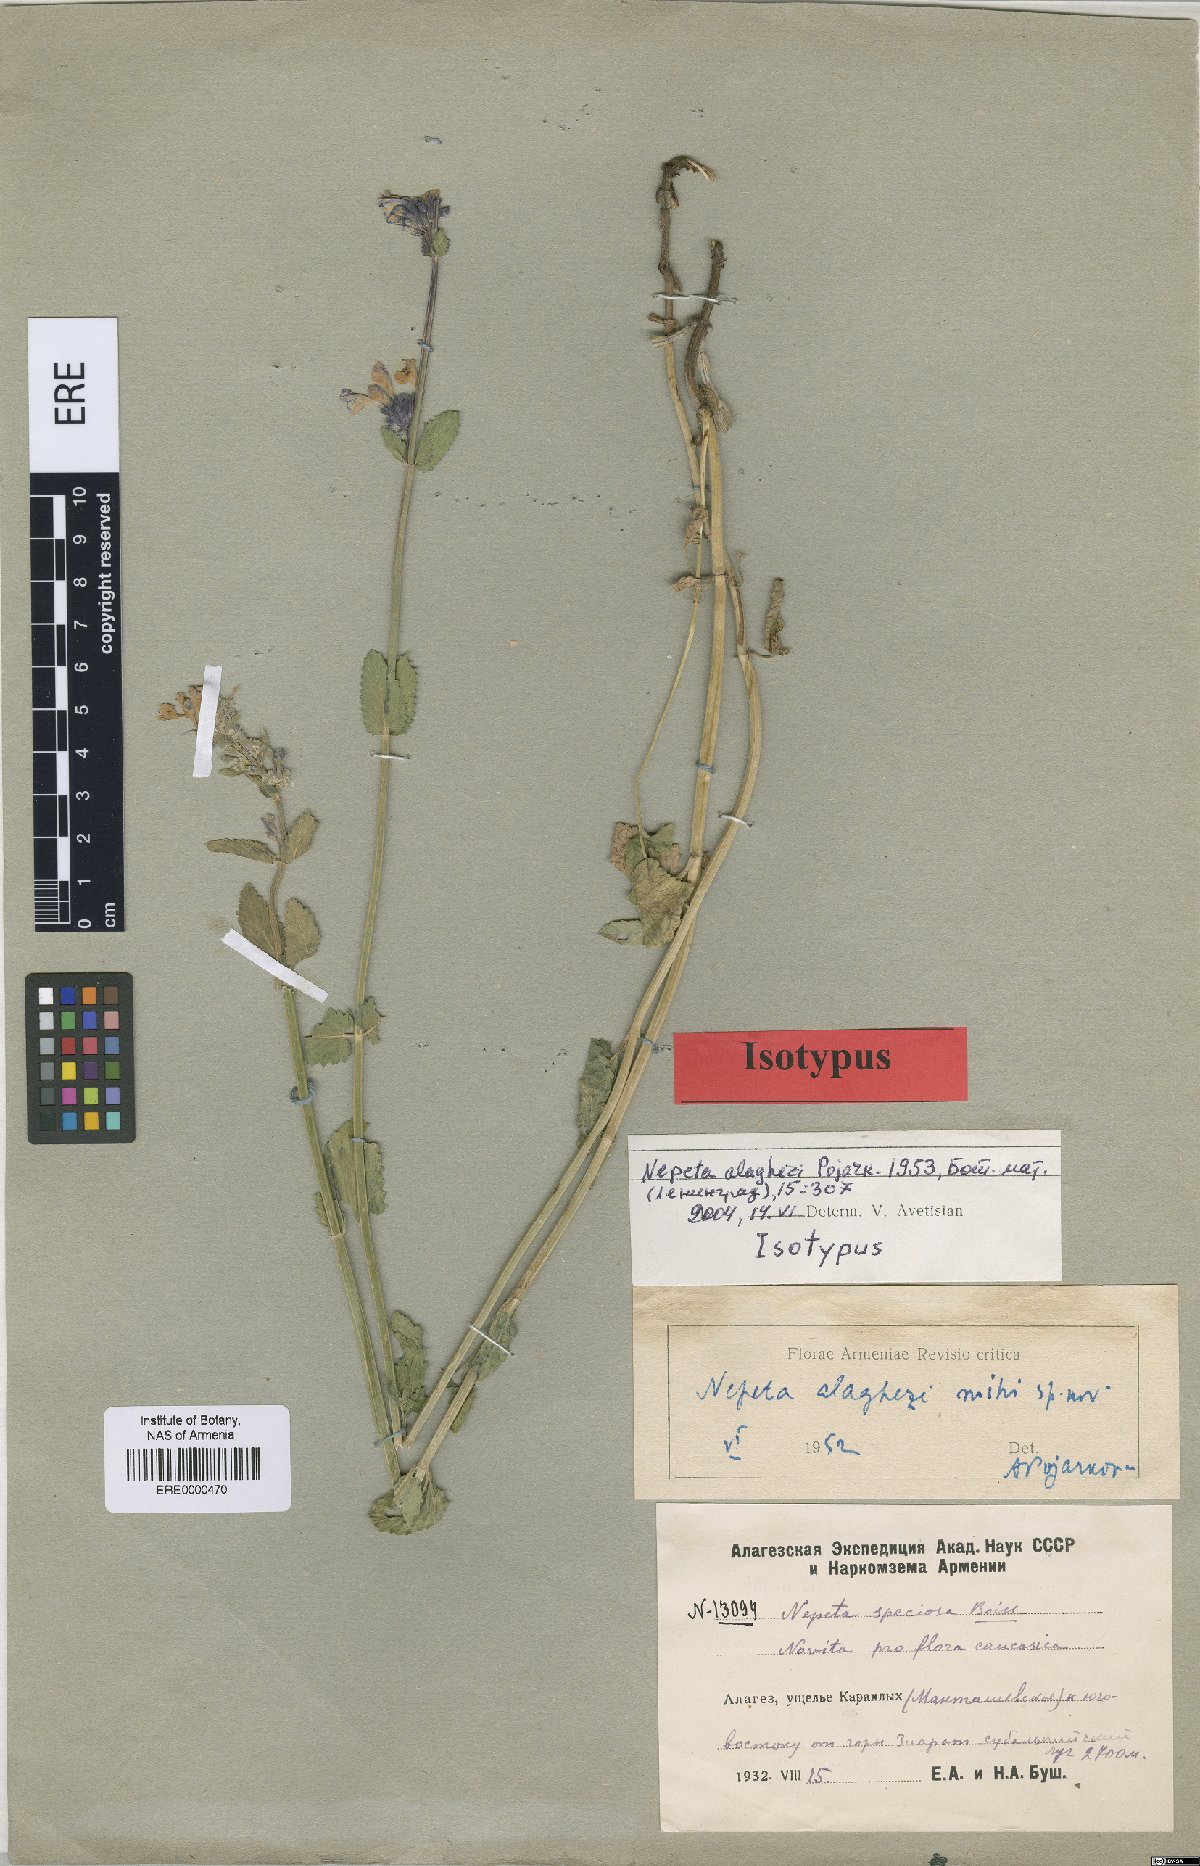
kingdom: Plantae
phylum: Tracheophyta
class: Magnoliopsida
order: Lamiales
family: Lamiaceae
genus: Nepeta
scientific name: Nepeta alaghezi
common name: Alaghezian catmint
